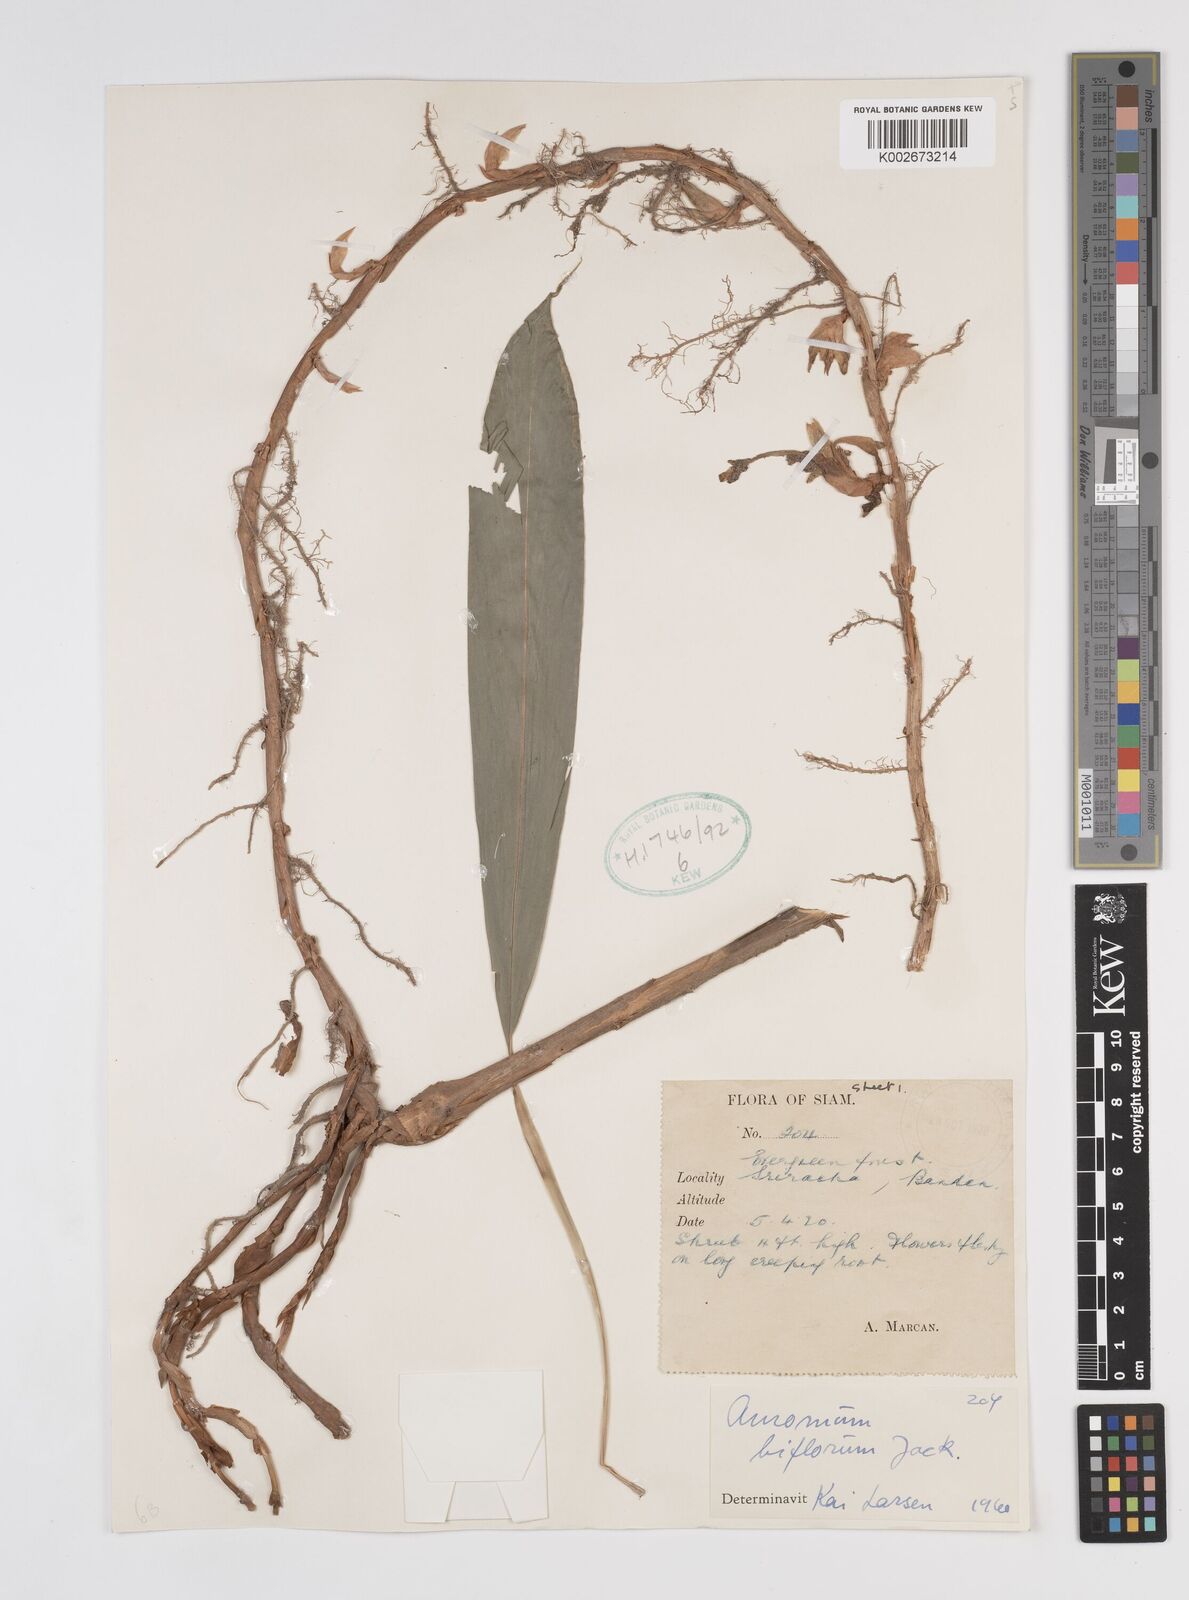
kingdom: Plantae
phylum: Tracheophyta
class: Liliopsida
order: Zingiberales
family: Zingiberaceae
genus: Wurfbainia
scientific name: Wurfbainia biflora
